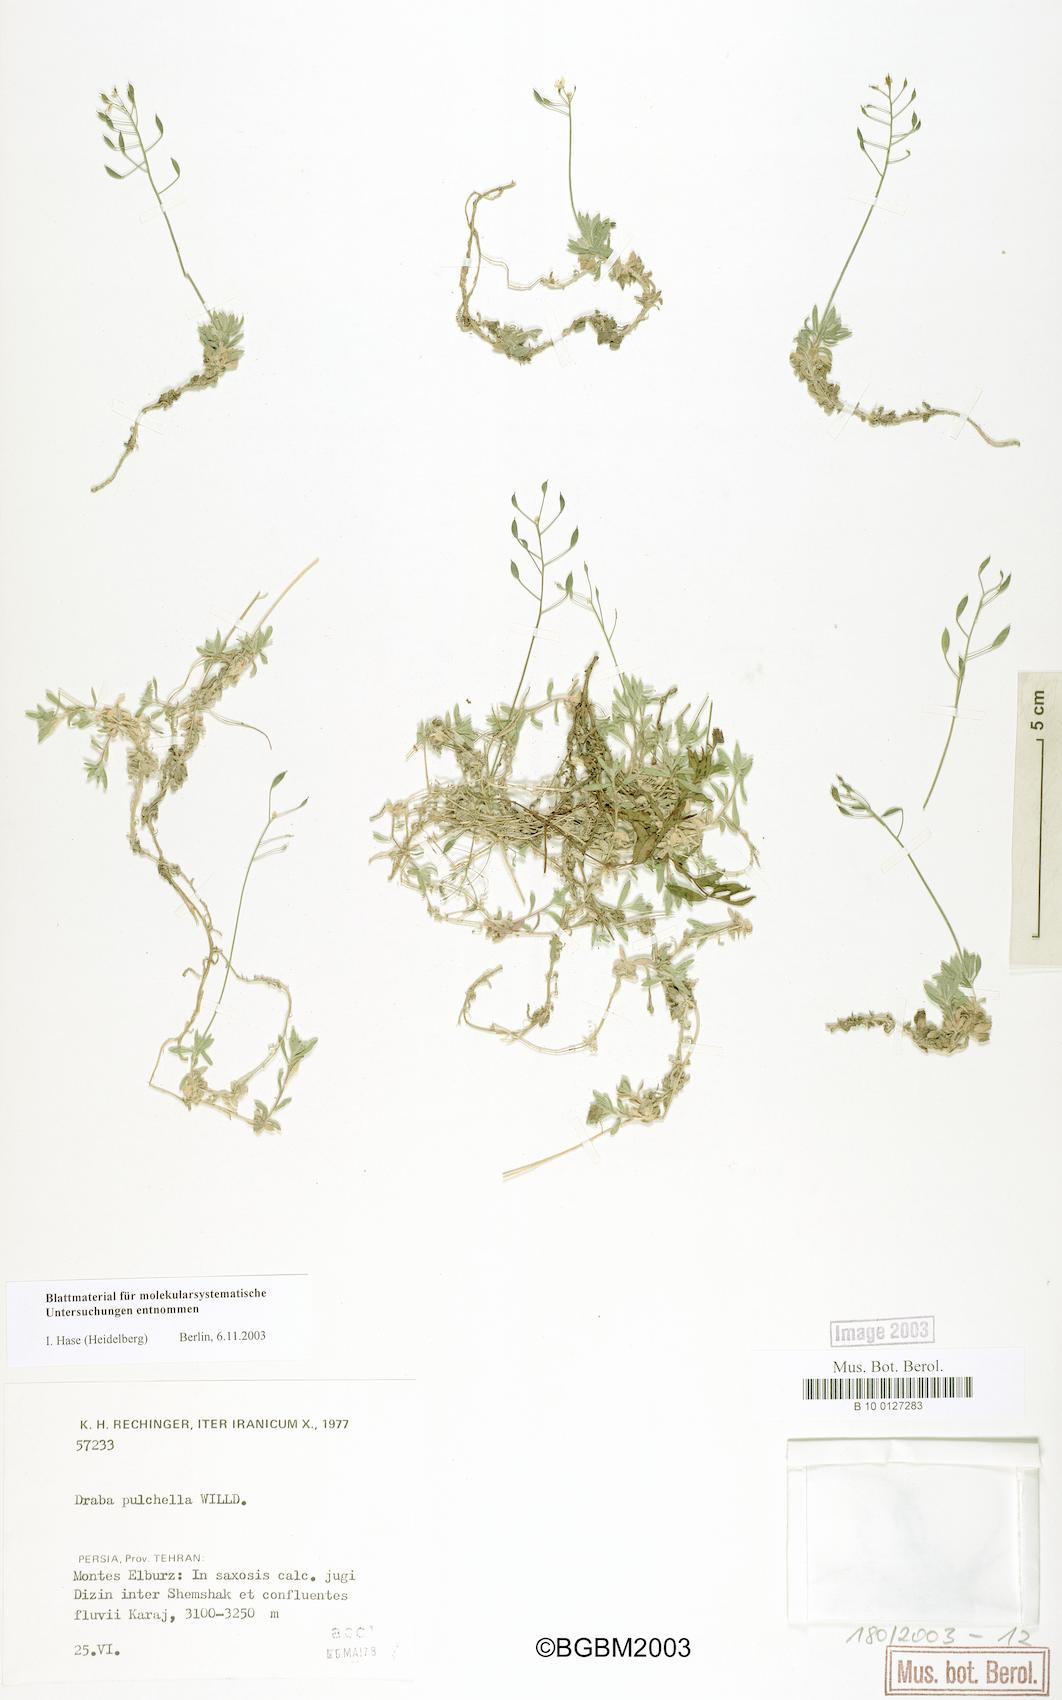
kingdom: Plantae
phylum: Tracheophyta
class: Magnoliopsida
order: Brassicales
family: Brassicaceae
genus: Draba
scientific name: Draba alpina
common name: Alpine draba
